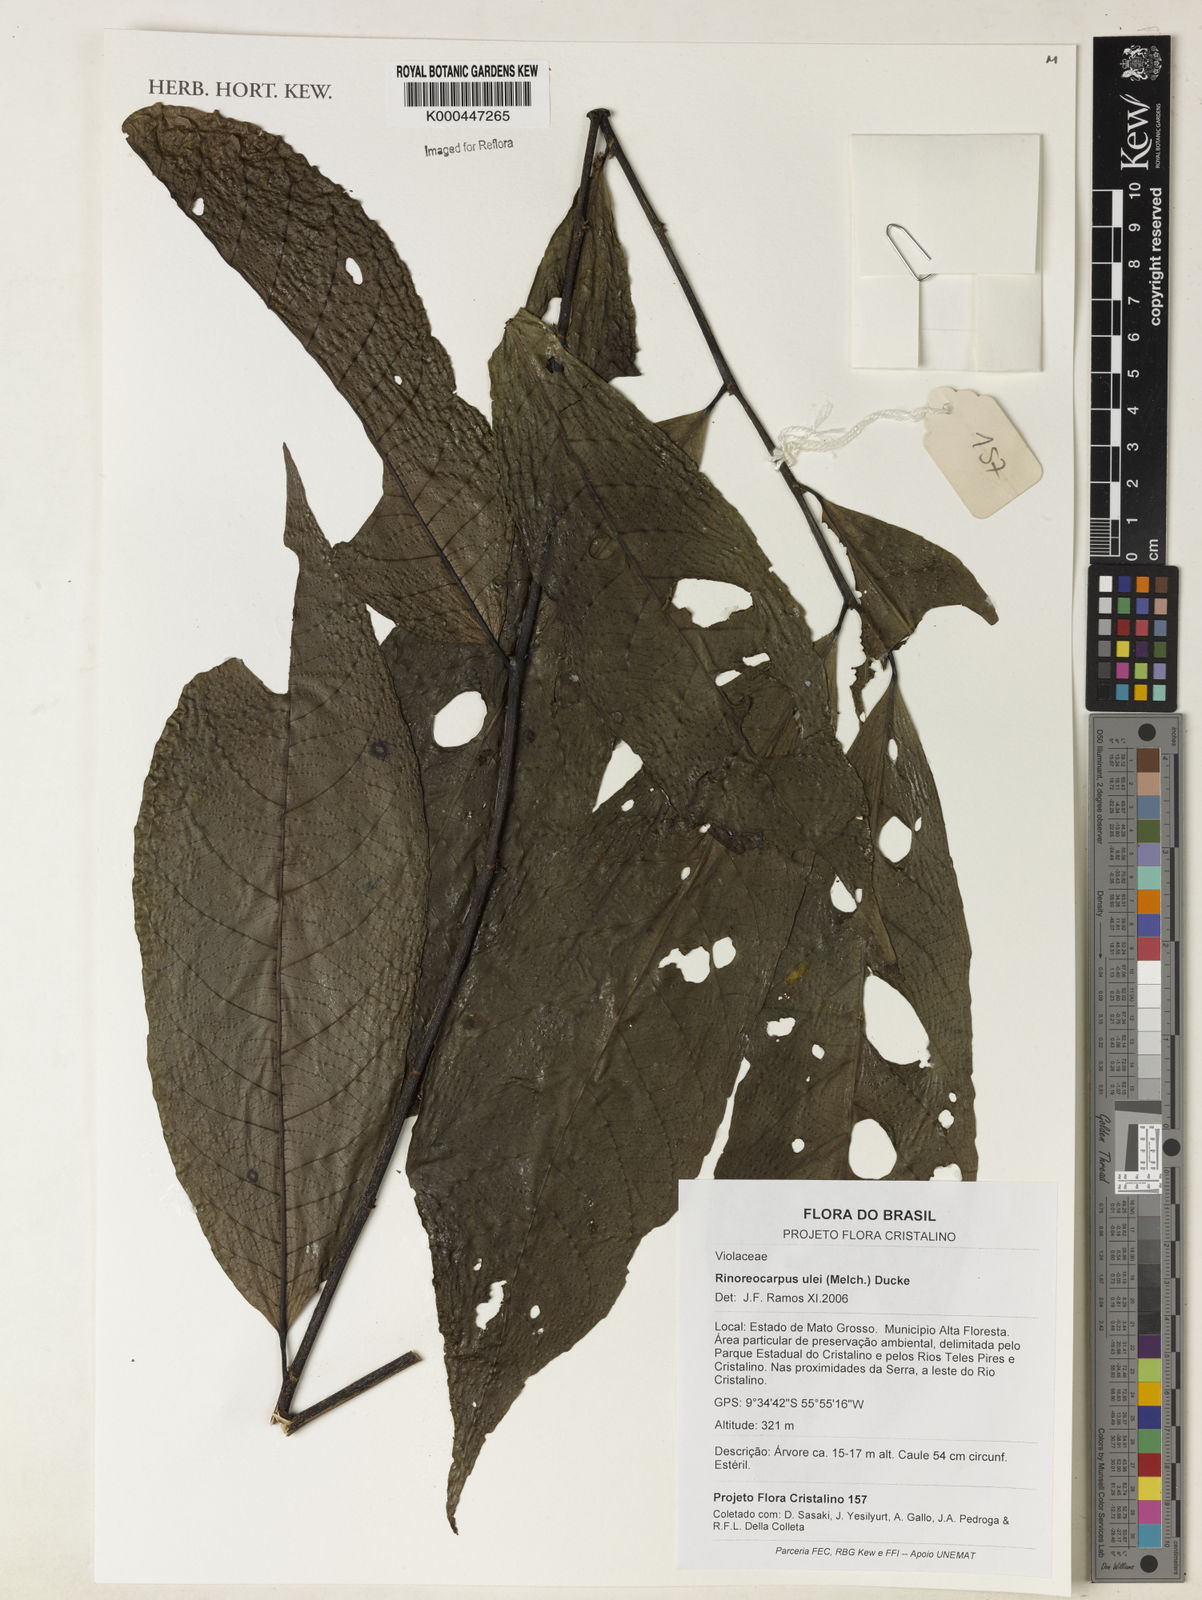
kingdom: Plantae
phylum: Tracheophyta
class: Magnoliopsida
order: Malpighiales
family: Violaceae
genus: Rinoreocarpus
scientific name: Rinoreocarpus ulei
